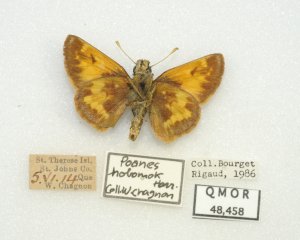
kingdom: Animalia
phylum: Arthropoda
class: Insecta
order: Lepidoptera
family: Hesperiidae
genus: Lon
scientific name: Lon hobomok
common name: Hobomok Skipper
